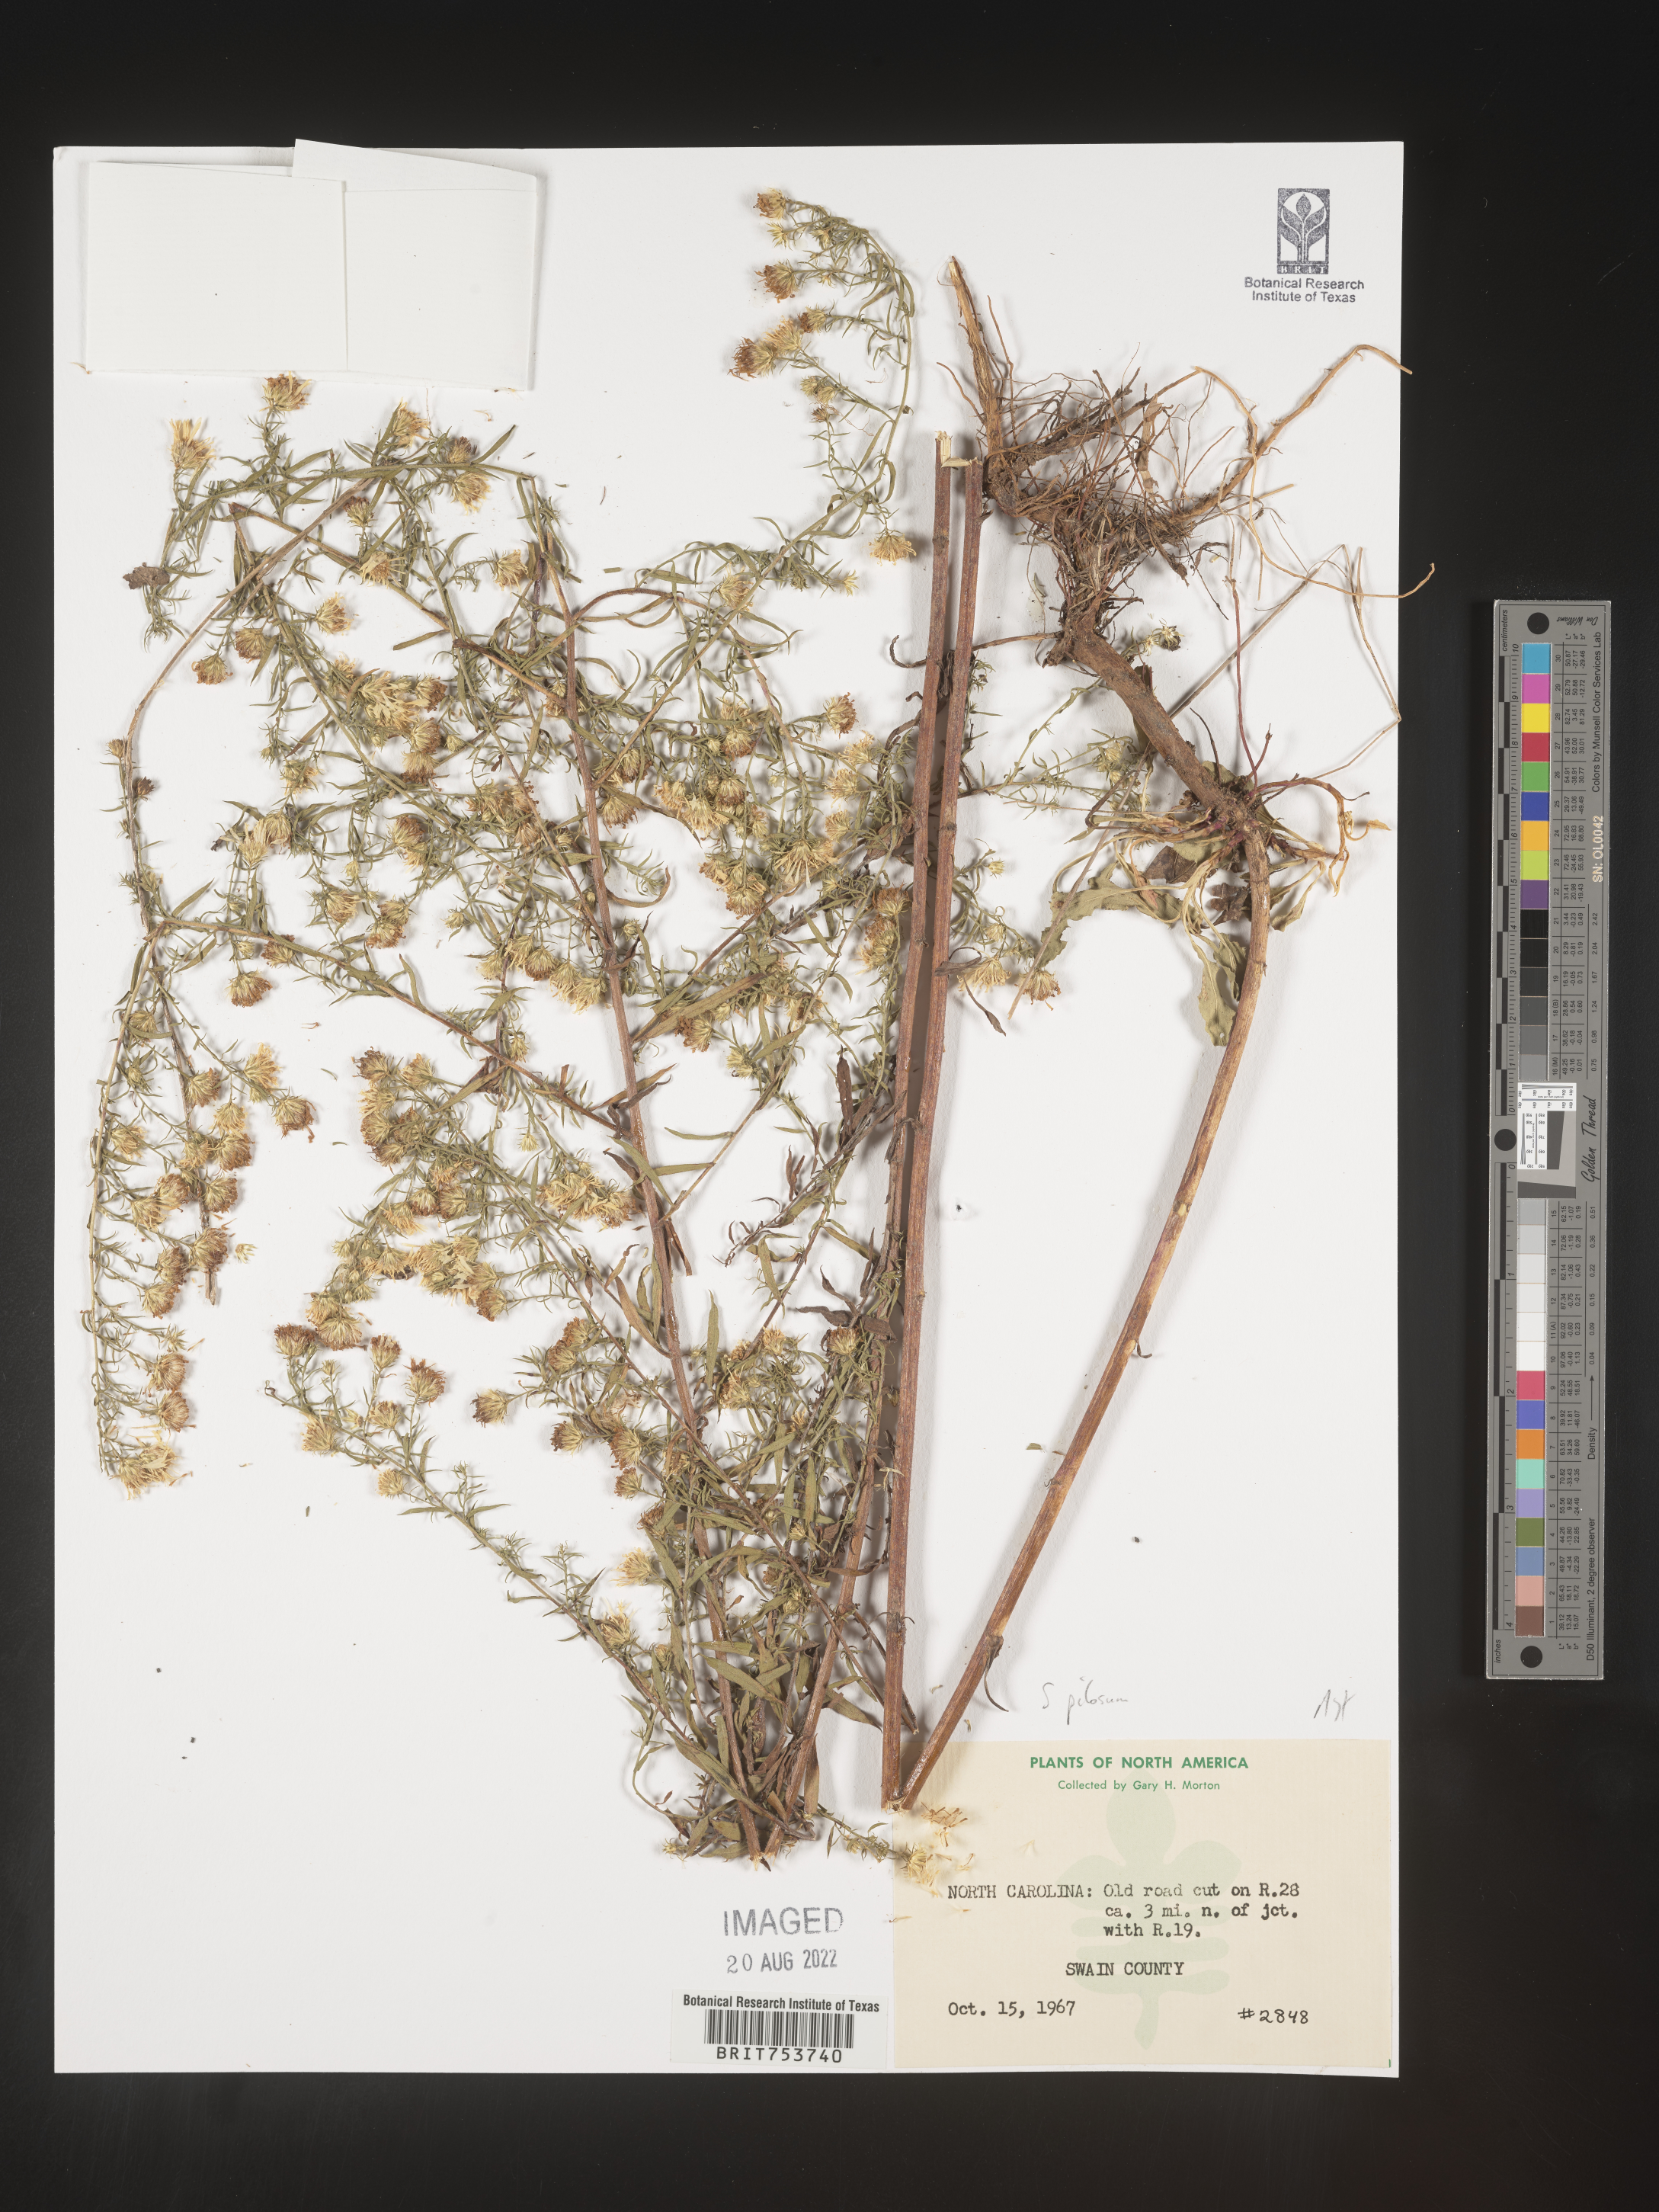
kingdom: Plantae
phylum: Tracheophyta
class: Magnoliopsida
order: Asterales
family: Asteraceae
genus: Symphyotrichum
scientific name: Symphyotrichum pilosum
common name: Awl aster
